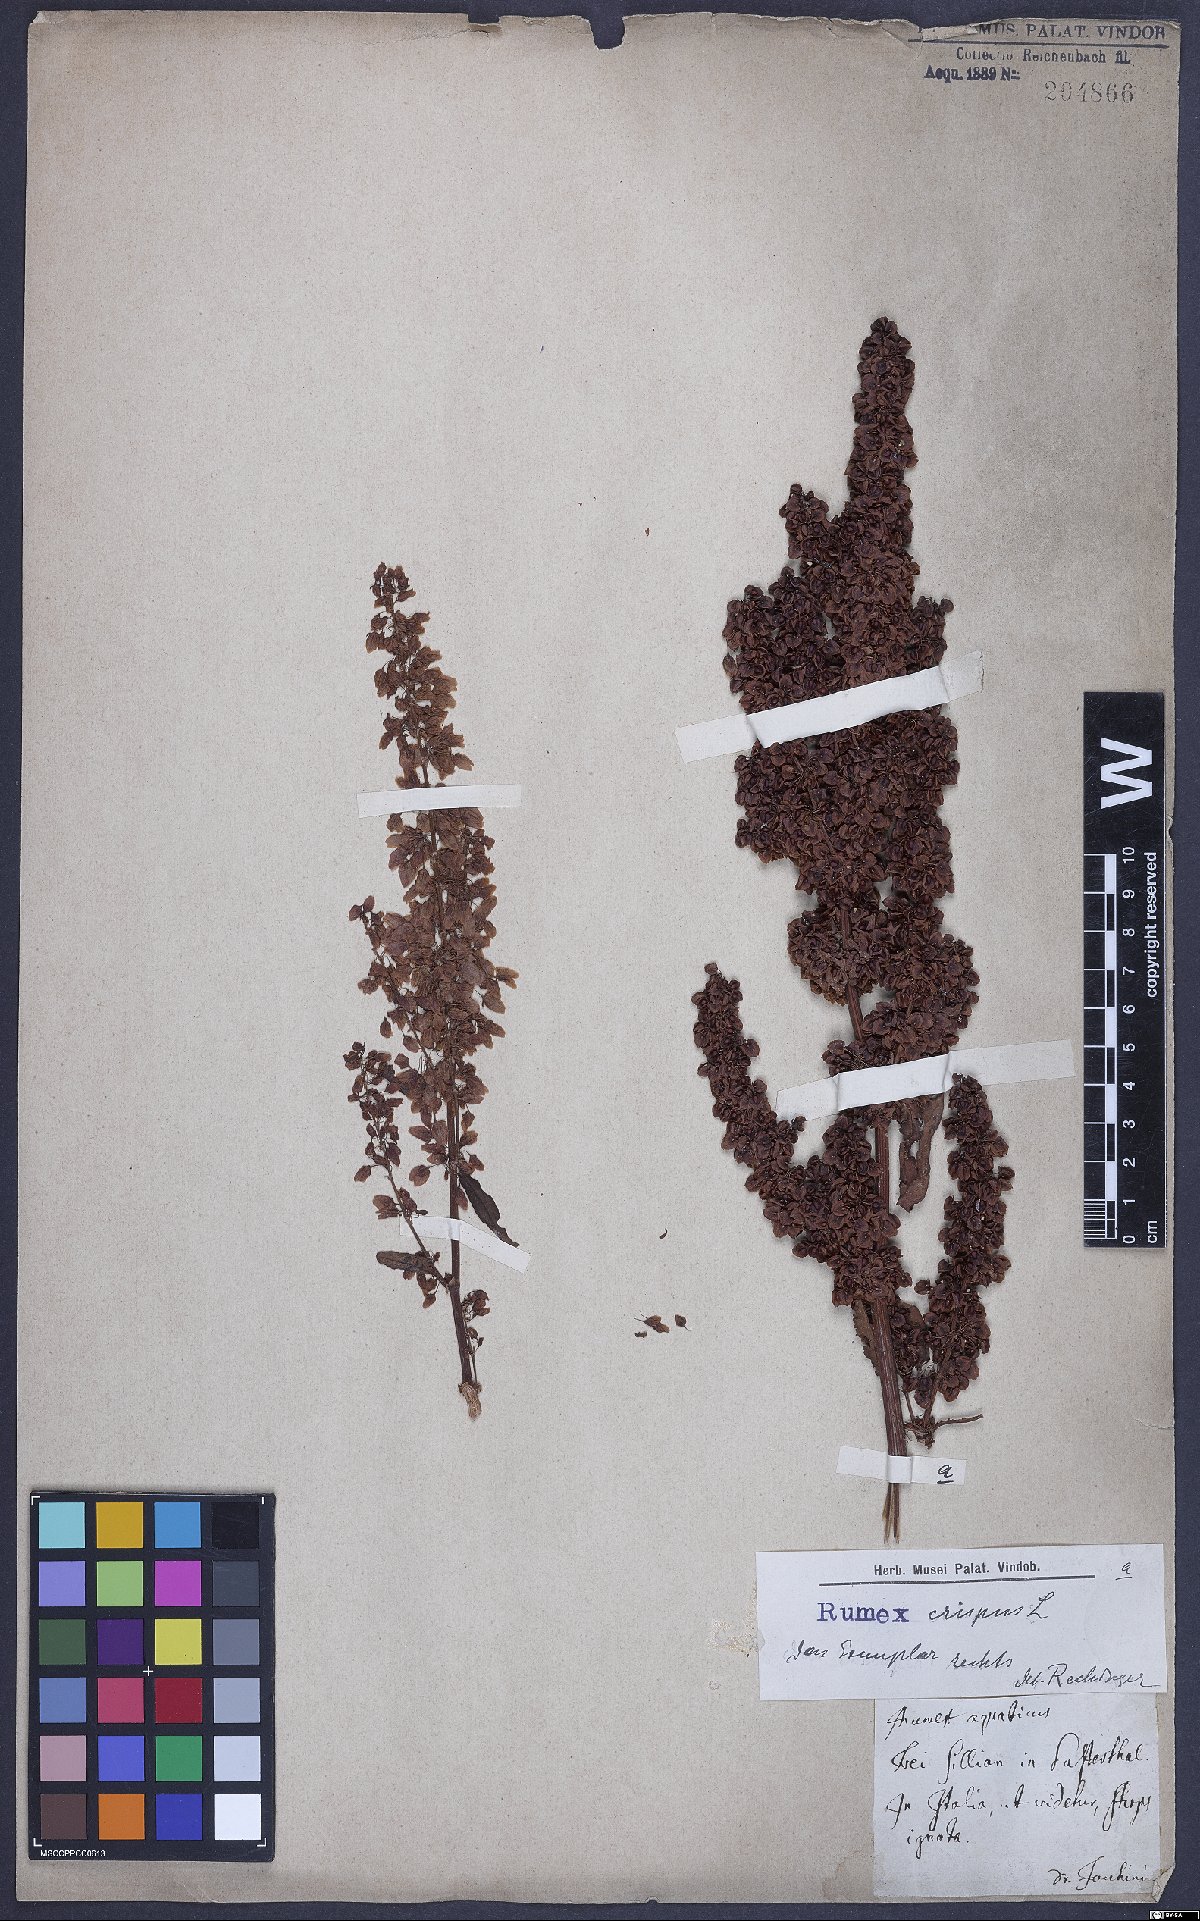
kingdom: Plantae
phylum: Tracheophyta
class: Magnoliopsida
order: Caryophyllales
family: Polygonaceae
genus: Rumex
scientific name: Rumex aquaticus
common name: Scottish dock
